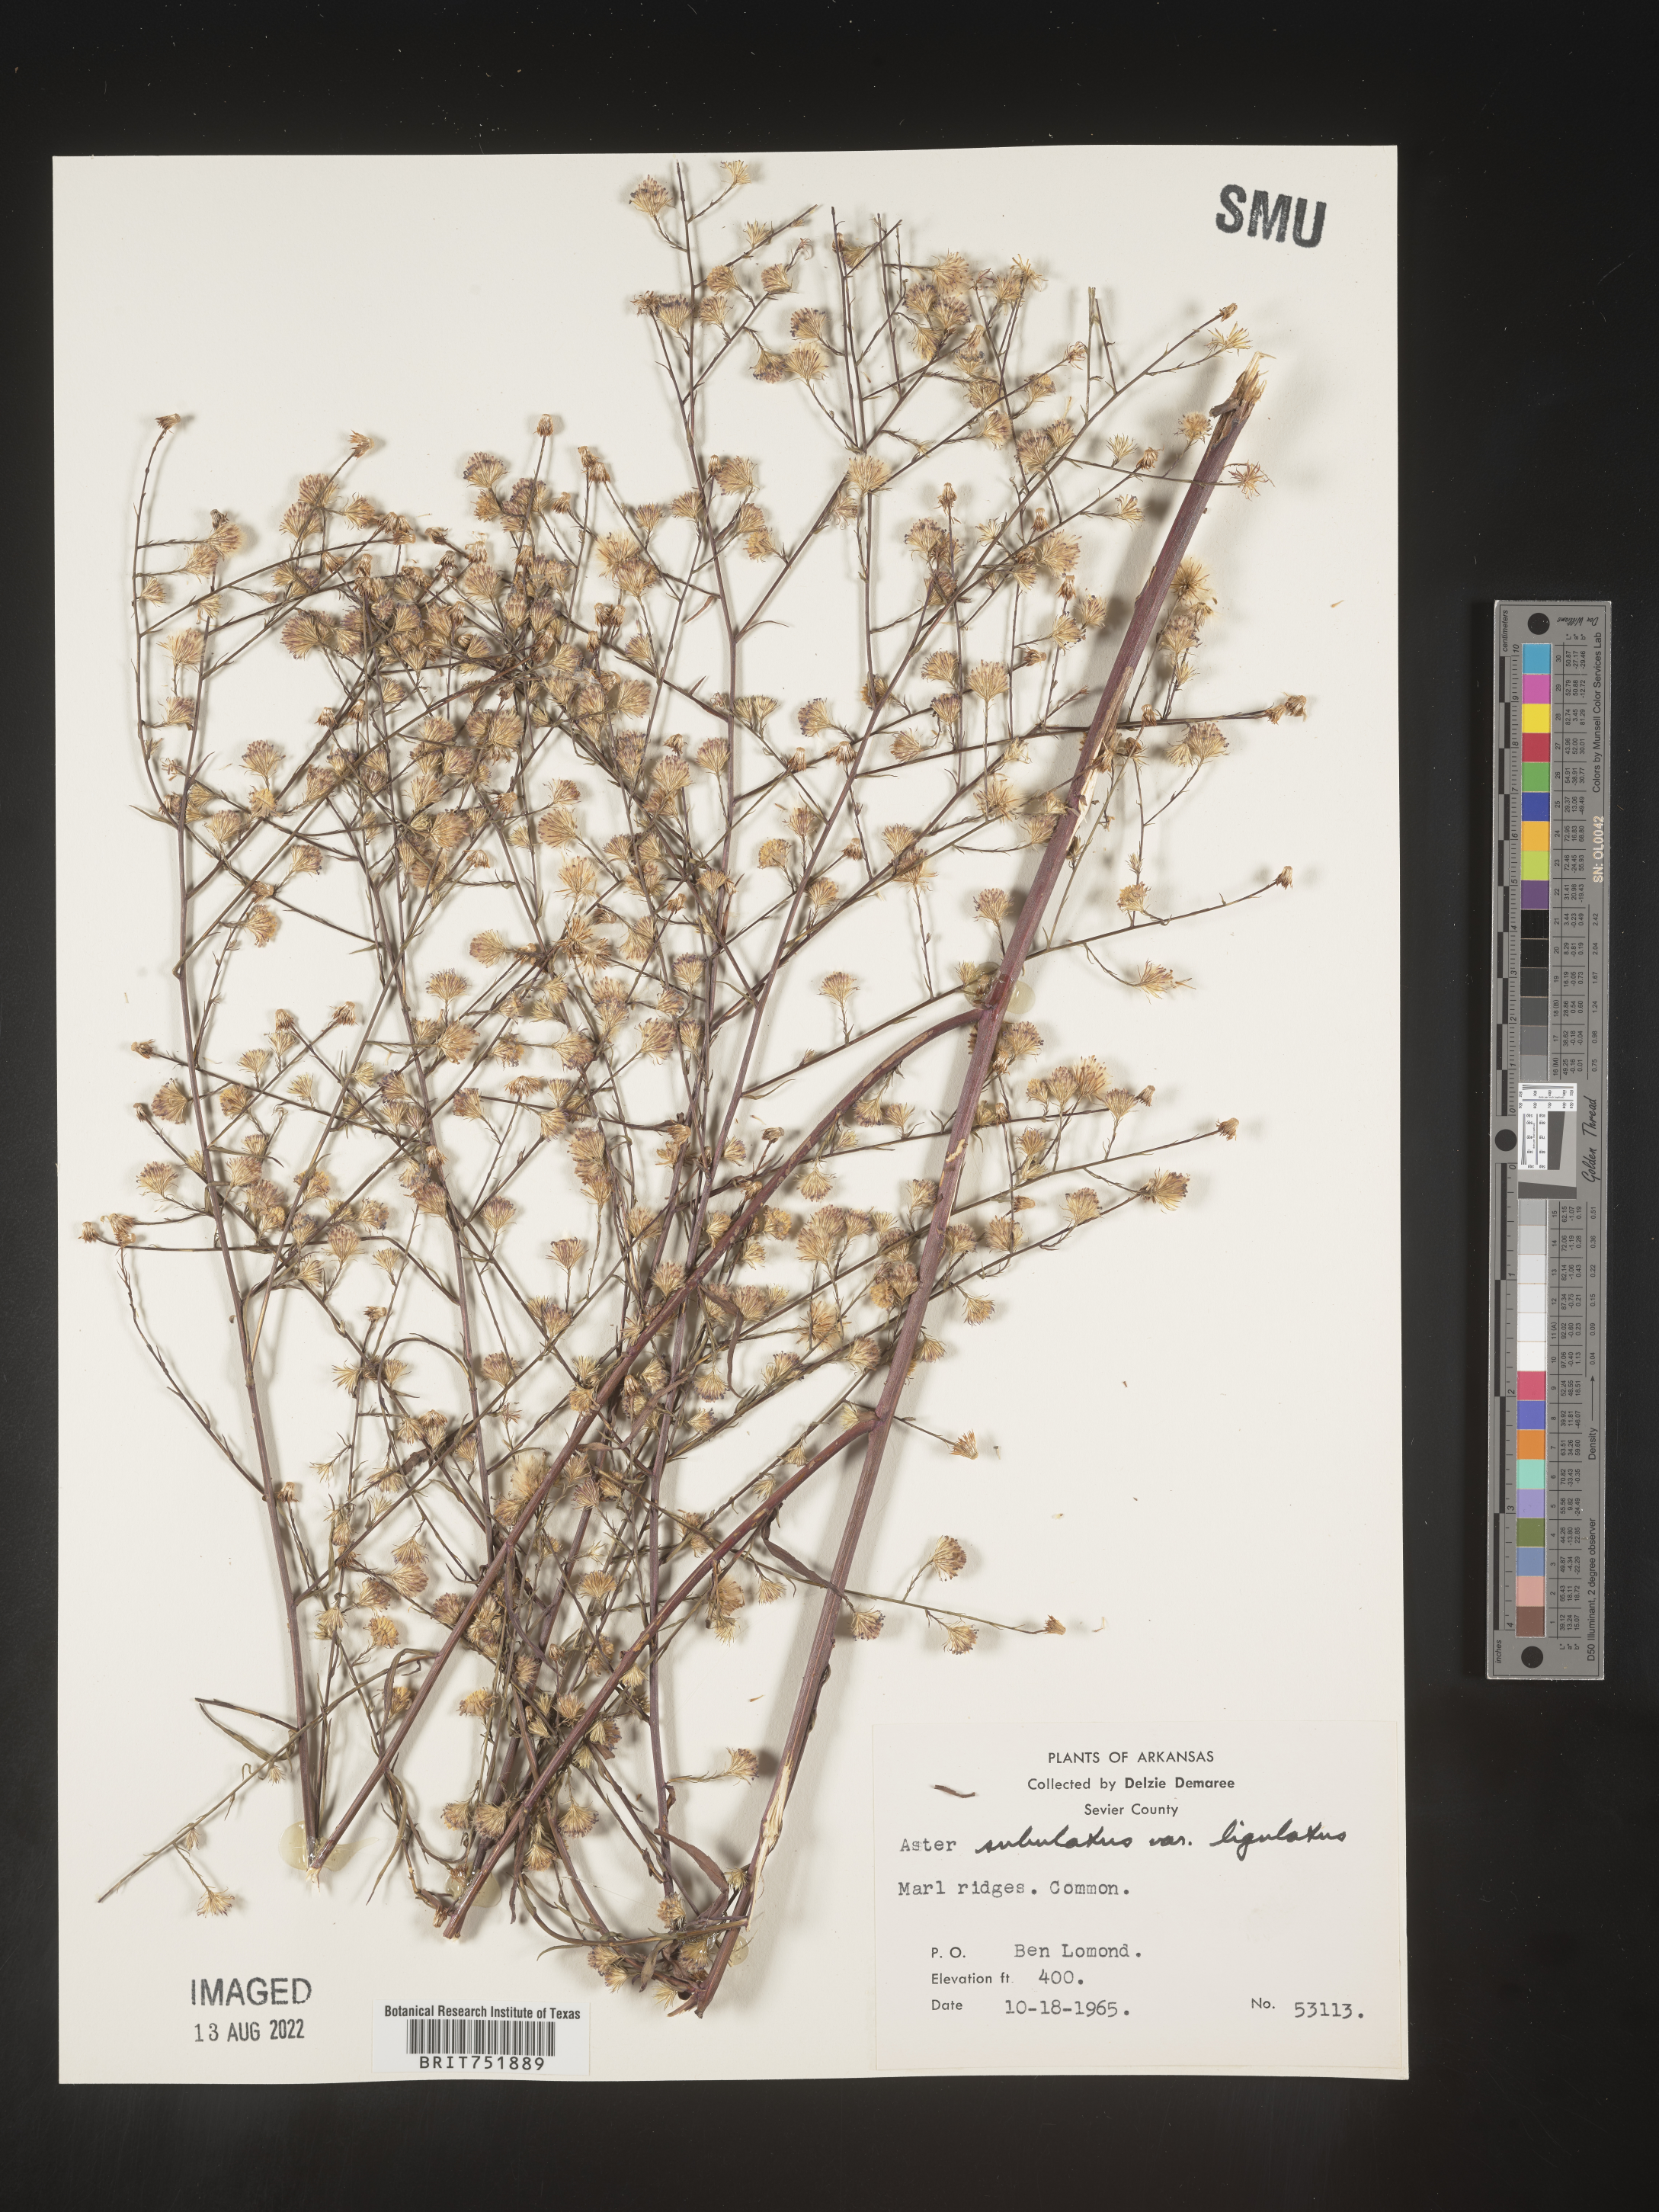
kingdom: Plantae
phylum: Tracheophyta
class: Magnoliopsida
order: Asterales
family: Asteraceae
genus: Symphyotrichum
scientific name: Symphyotrichum divaricatum
